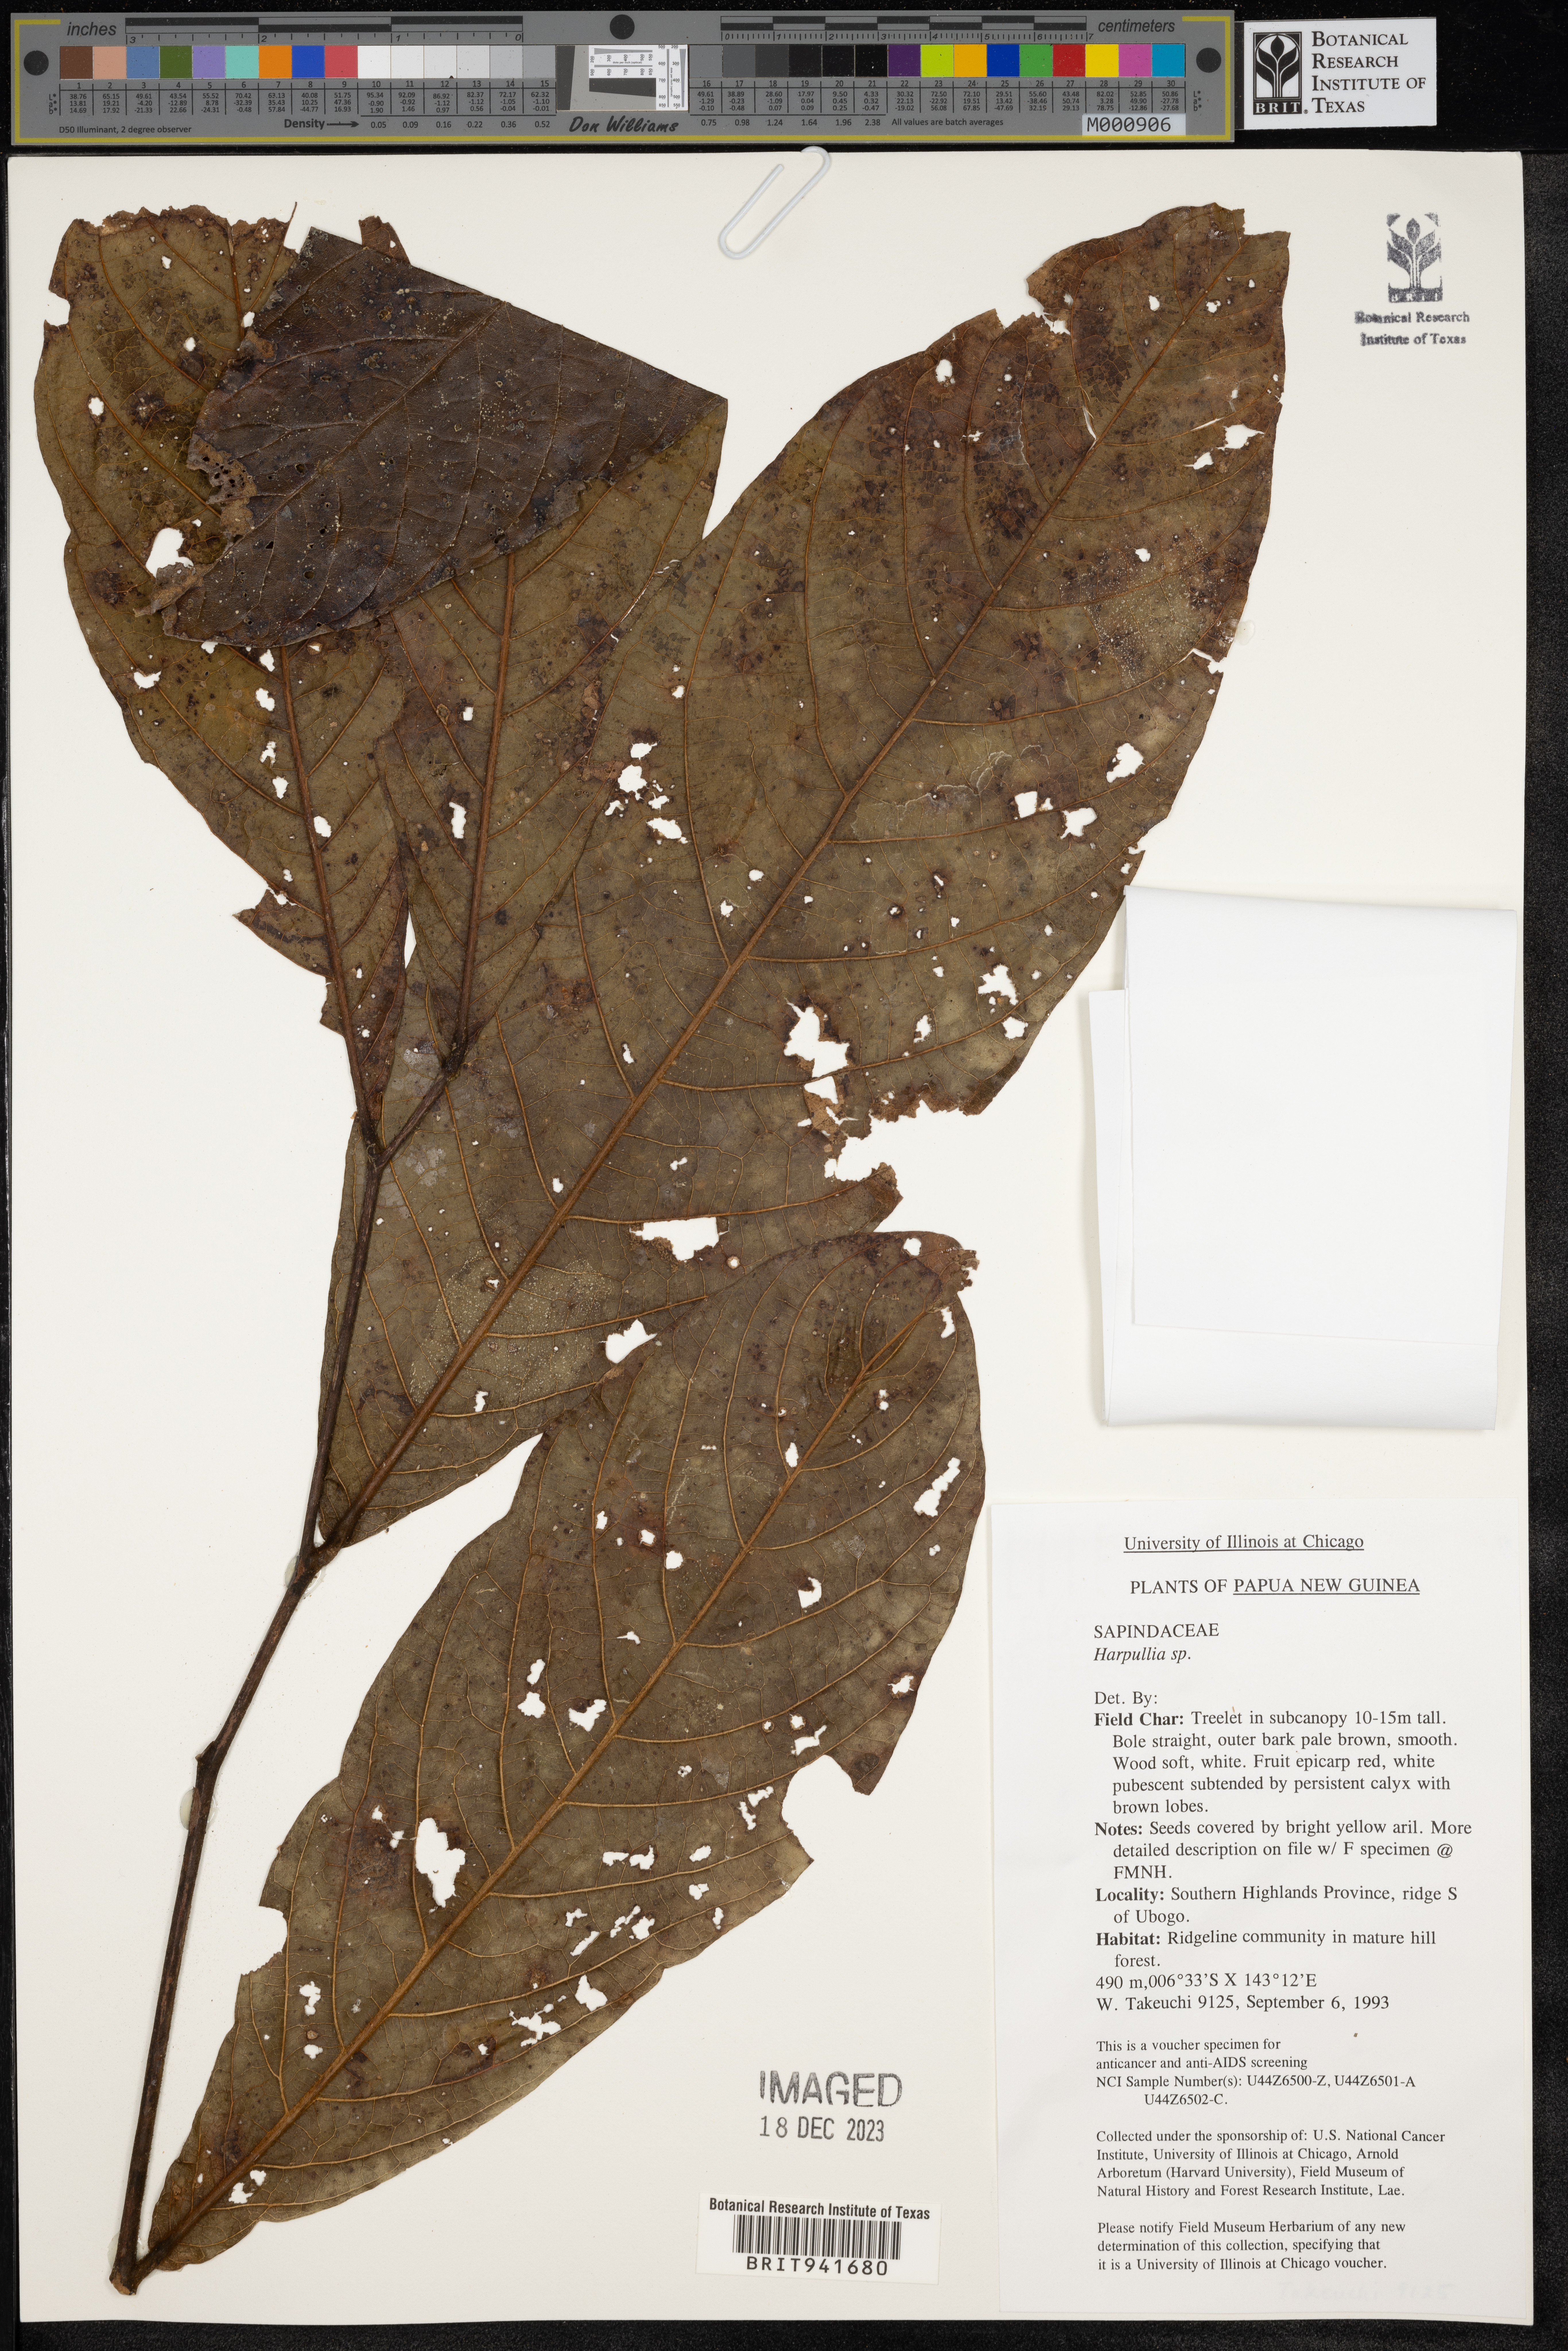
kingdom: Plantae
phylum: Tracheophyta
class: Magnoliopsida
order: Sapindales
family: Sapindaceae
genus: Harpullia
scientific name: Harpullia
